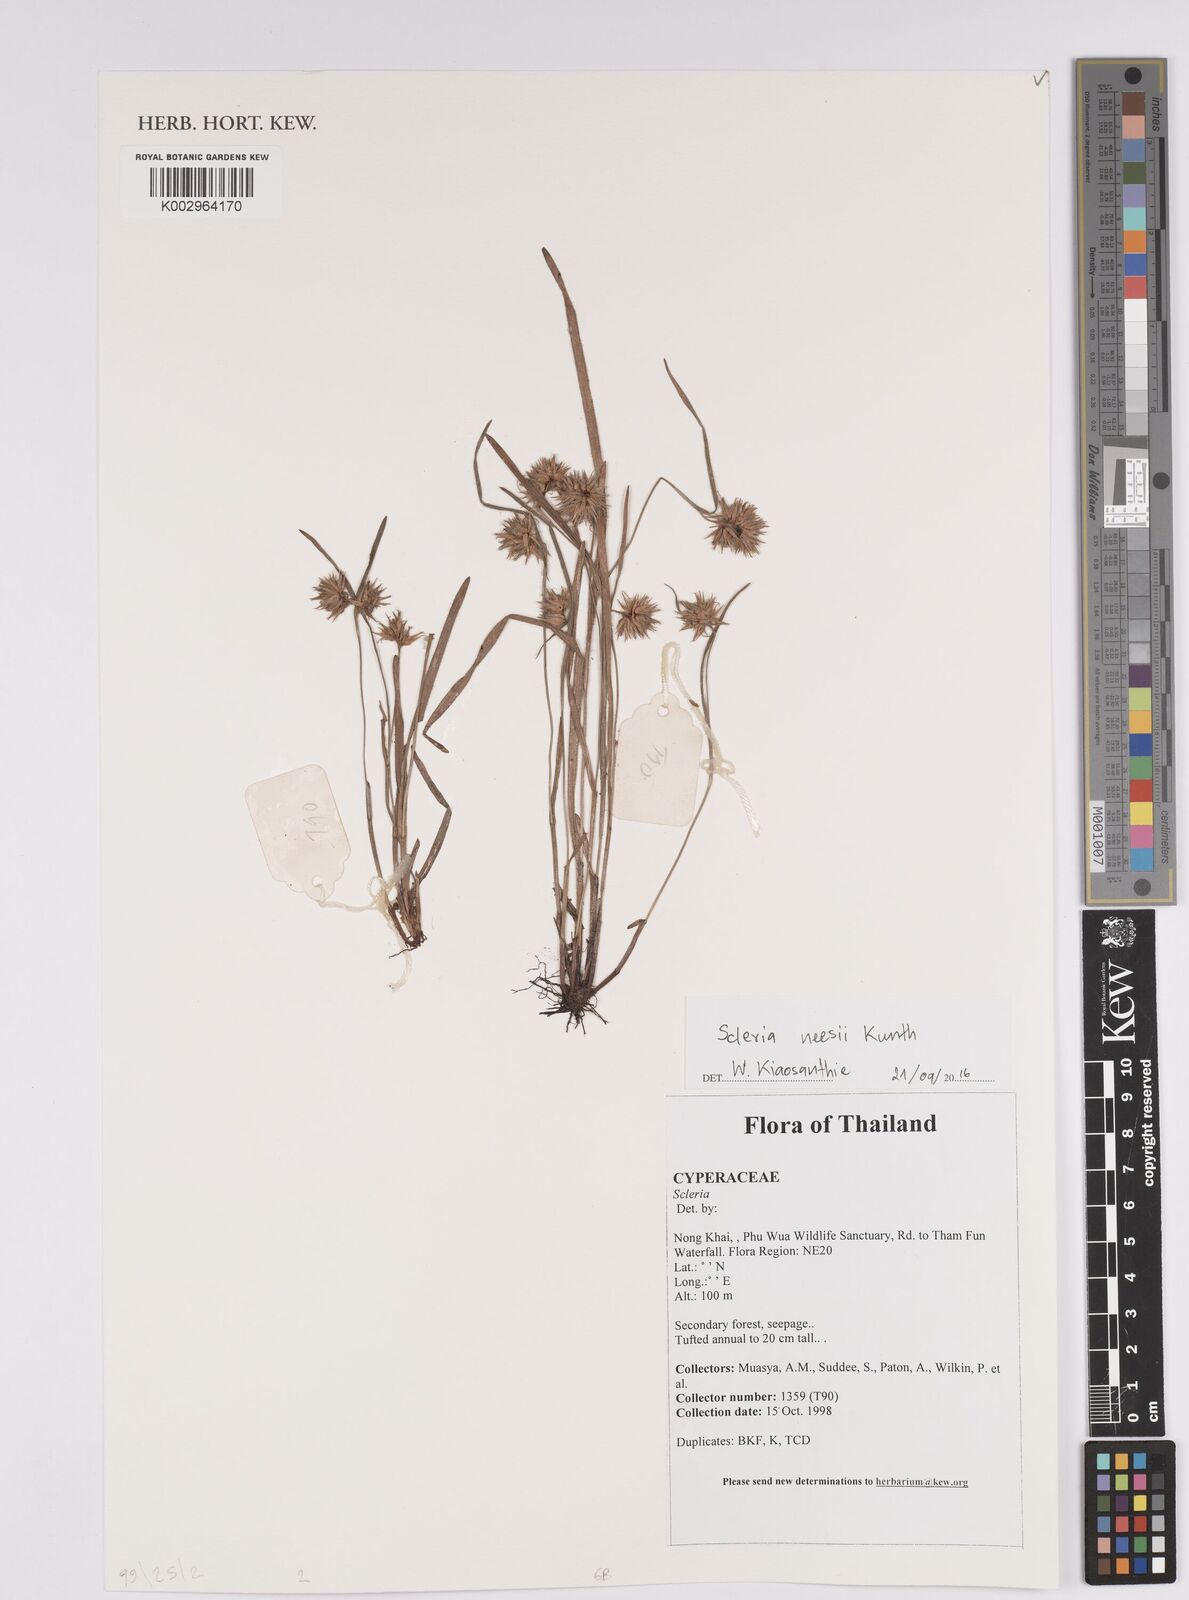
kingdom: Plantae
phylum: Tracheophyta
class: Liliopsida
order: Poales
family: Cyperaceae
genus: Scleria
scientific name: Scleria neesii
